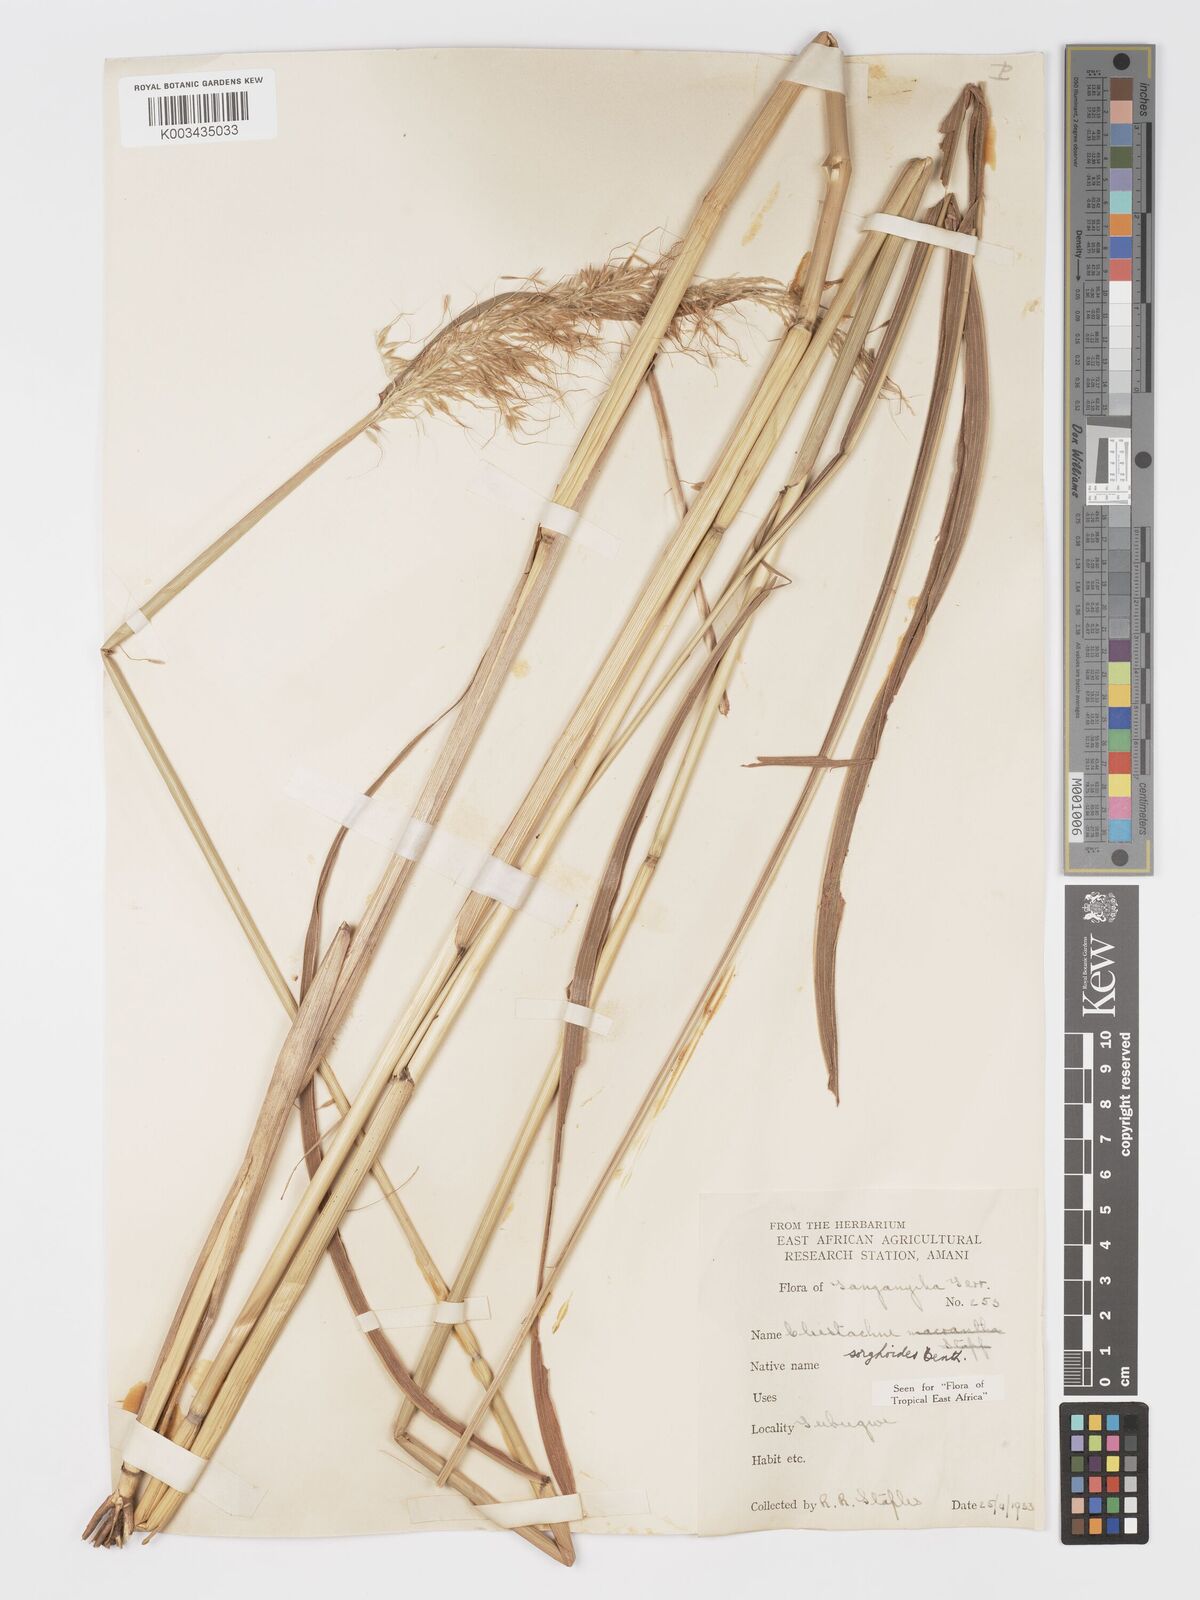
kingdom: Plantae
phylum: Tracheophyta
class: Liliopsida
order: Poales
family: Poaceae
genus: Cleistachne
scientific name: Cleistachne sorghoides
